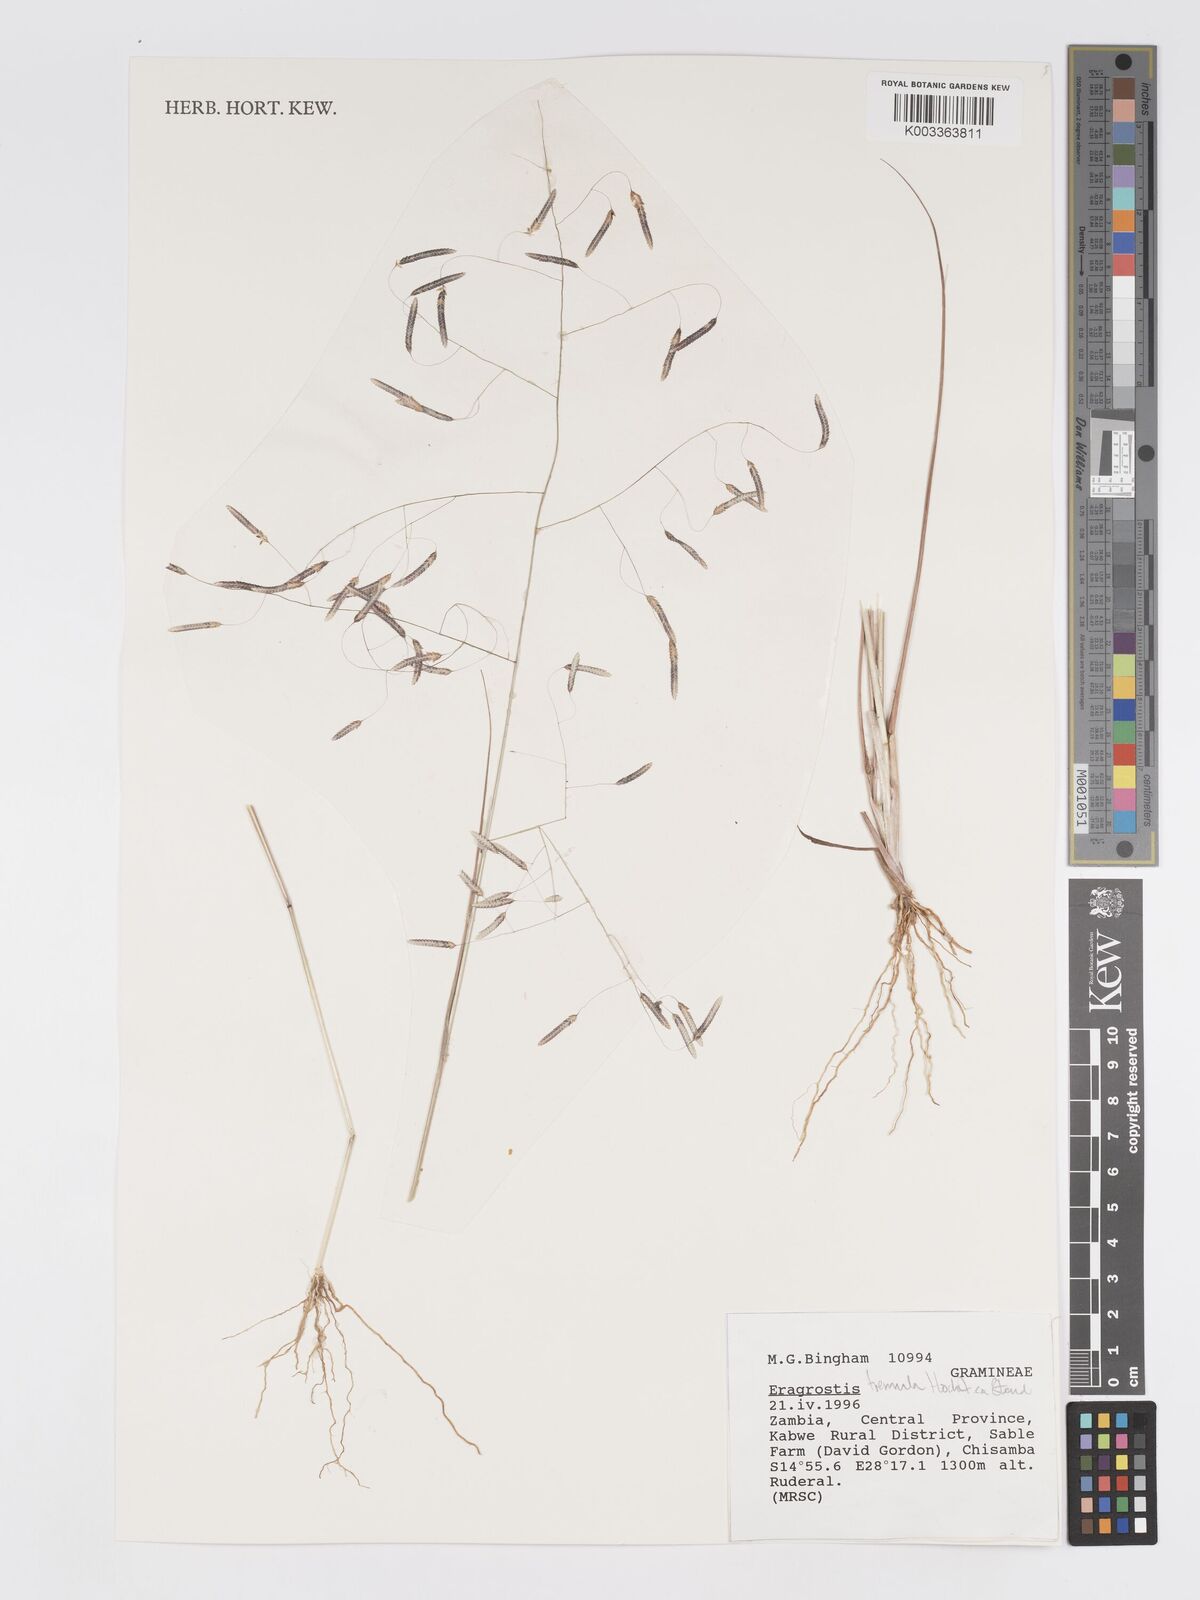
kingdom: Plantae
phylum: Tracheophyta
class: Liliopsida
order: Poales
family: Poaceae
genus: Eragrostis
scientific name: Eragrostis tremula
